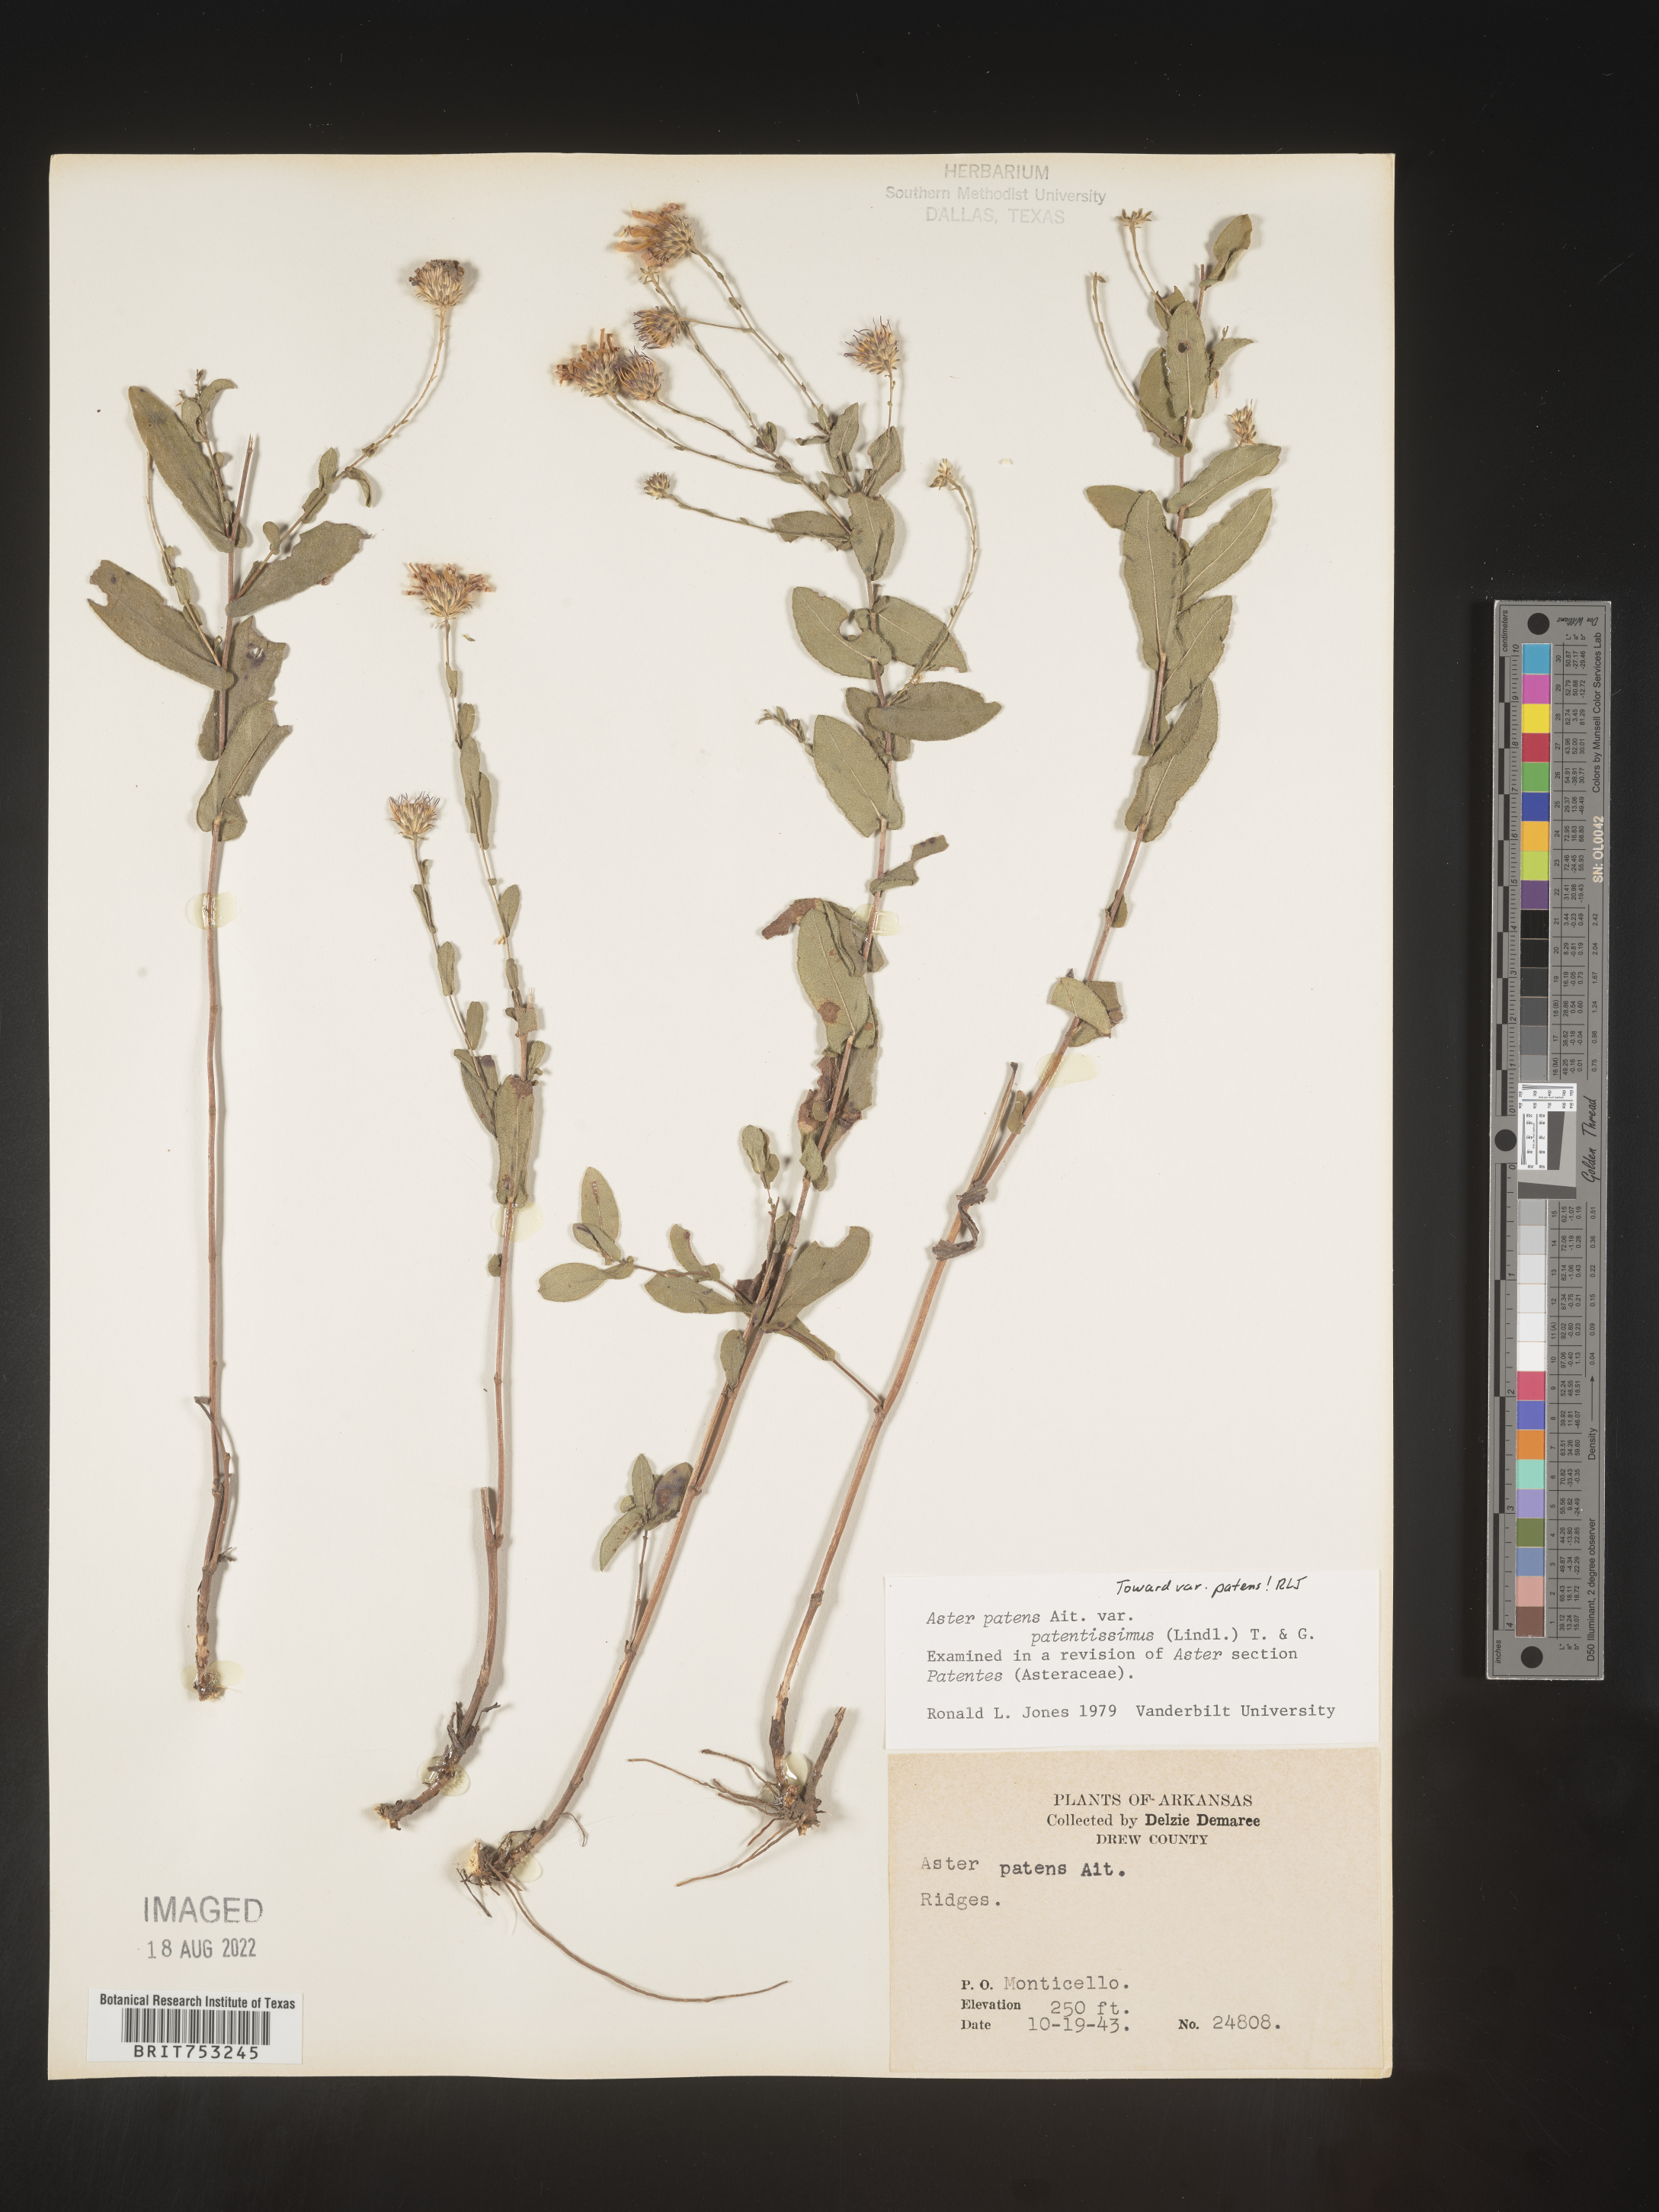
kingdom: Plantae
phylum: Tracheophyta
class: Magnoliopsida
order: Asterales
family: Asteraceae
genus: Symphyotrichum
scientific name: Symphyotrichum patens
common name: Late purple aster
